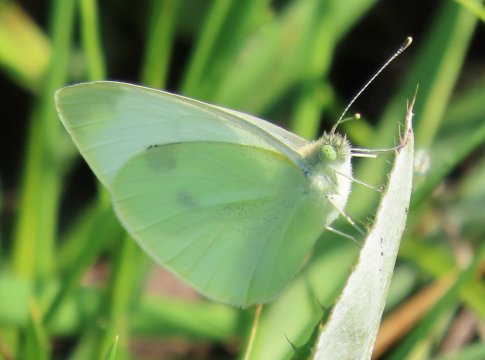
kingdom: Animalia
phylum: Arthropoda
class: Insecta
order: Lepidoptera
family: Pieridae
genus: Pieris
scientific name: Pieris rapae
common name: Cabbage White
